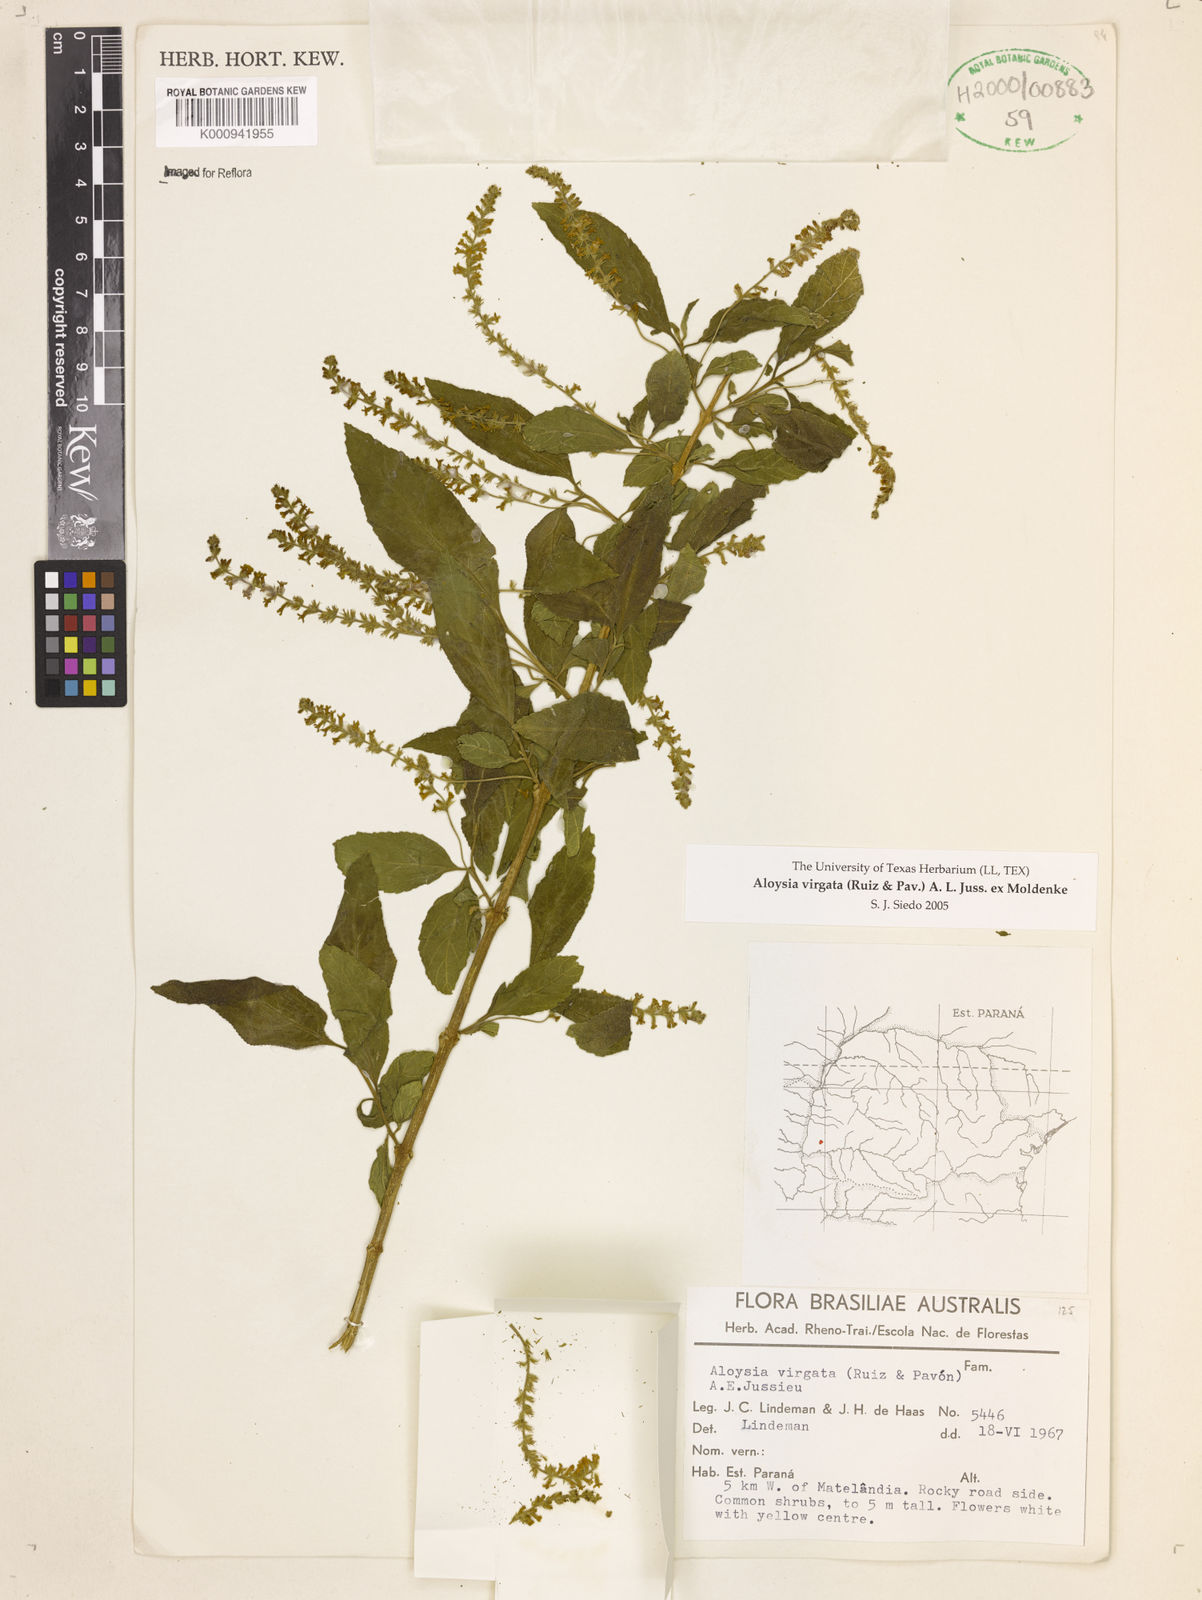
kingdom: Plantae
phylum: Tracheophyta
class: Magnoliopsida
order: Lamiales
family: Verbenaceae
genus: Aloysia
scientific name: Aloysia
